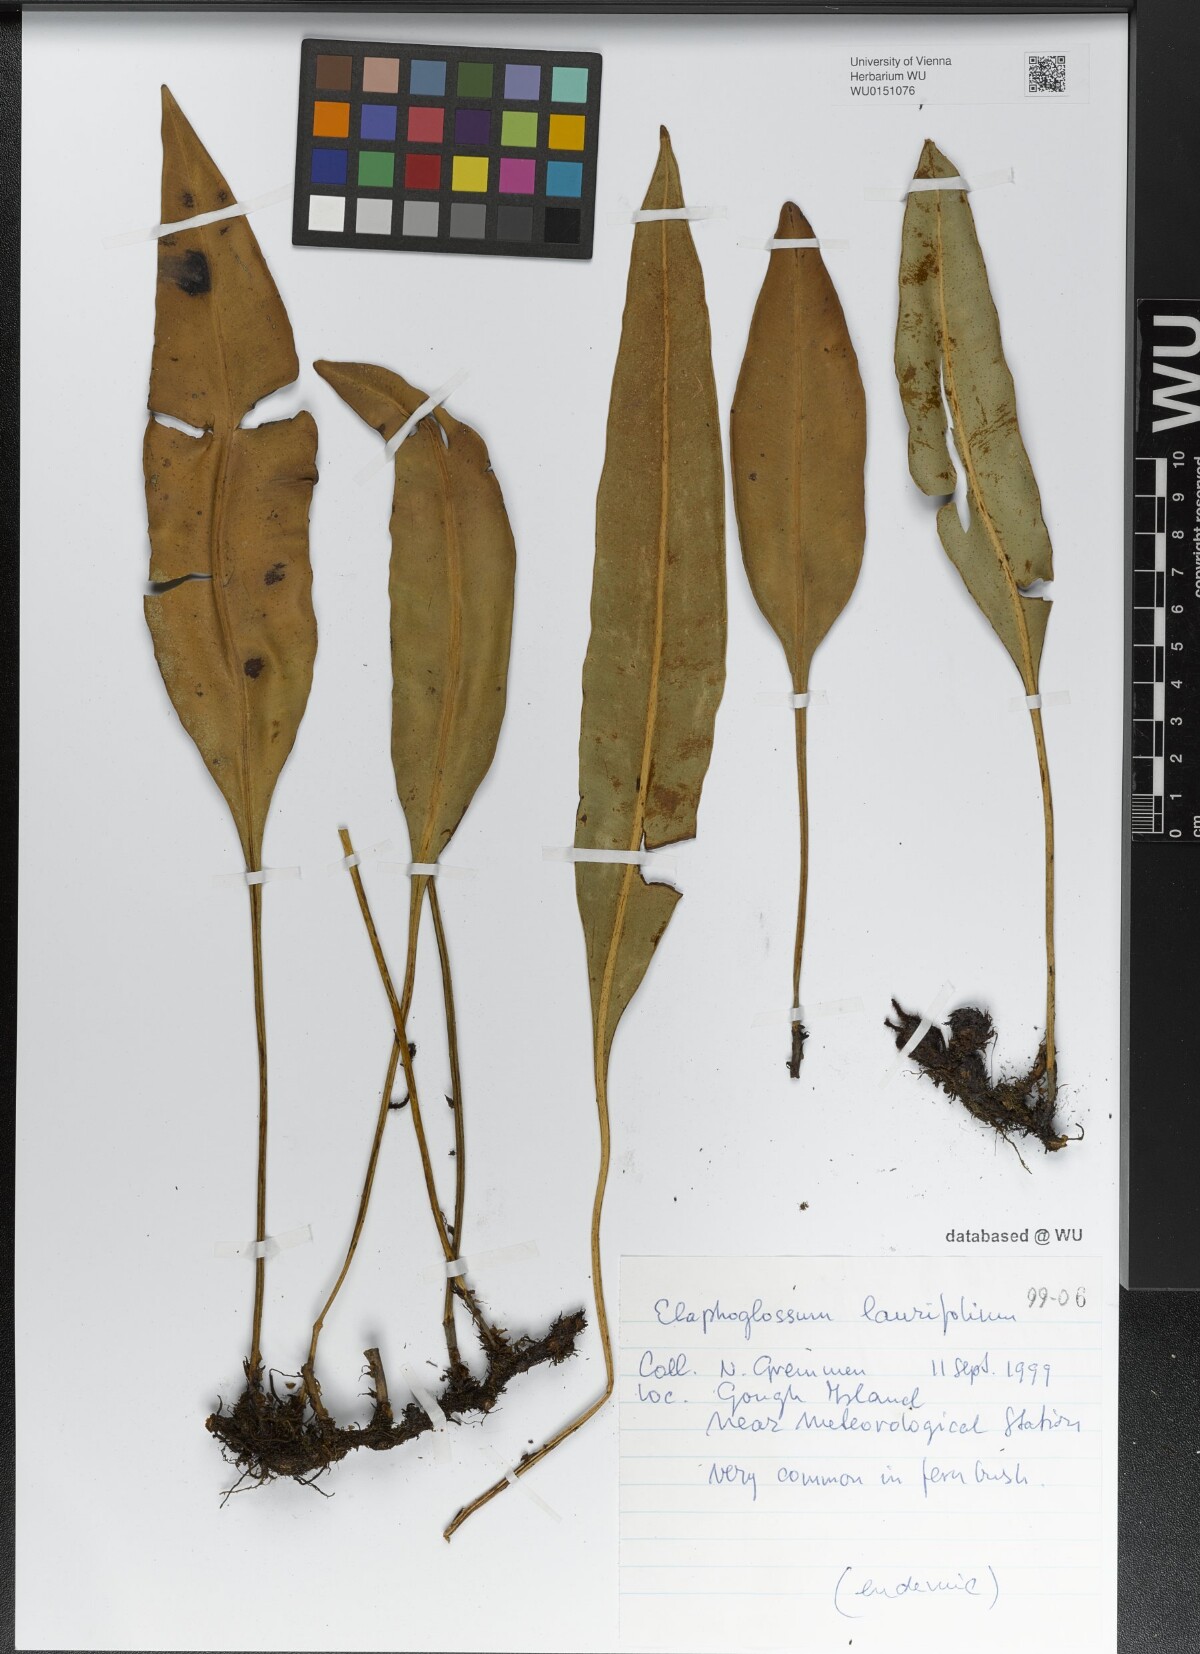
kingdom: Plantae
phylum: Tracheophyta
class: Polypodiopsida
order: Polypodiales
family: Dryopteridaceae
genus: Elaphoglossum
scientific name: Elaphoglossum laurifolium
